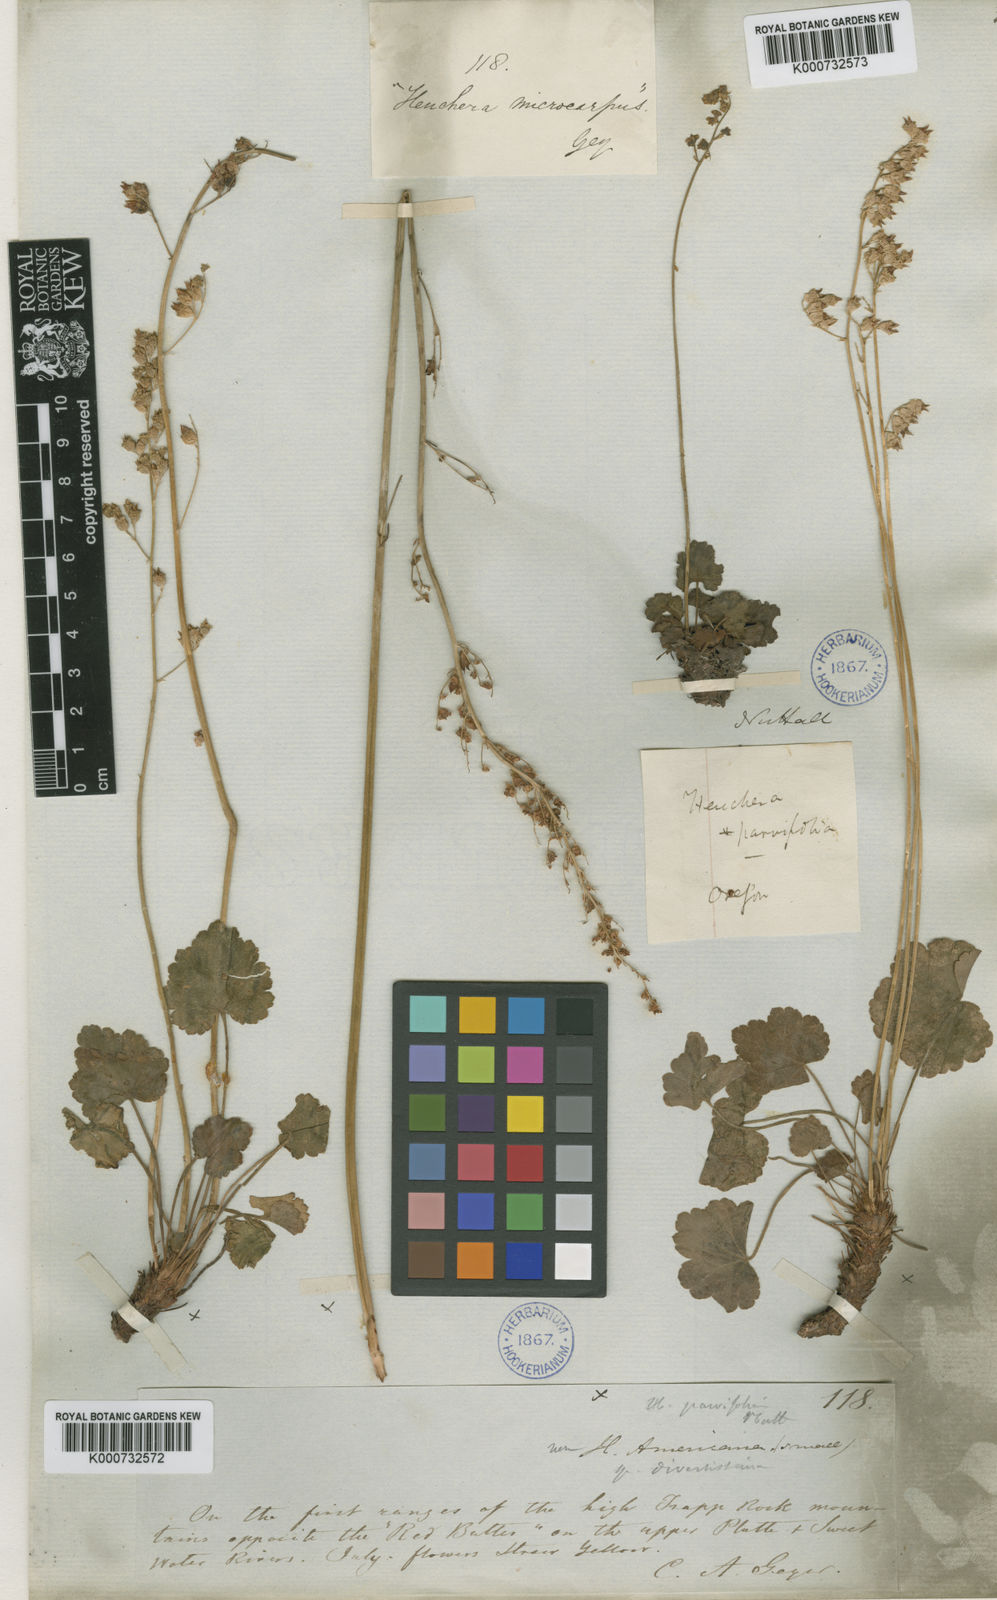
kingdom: Plantae
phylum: Tracheophyta
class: Magnoliopsida
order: Saxifragales
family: Saxifragaceae
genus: Heuchera
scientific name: Heuchera parviflora
